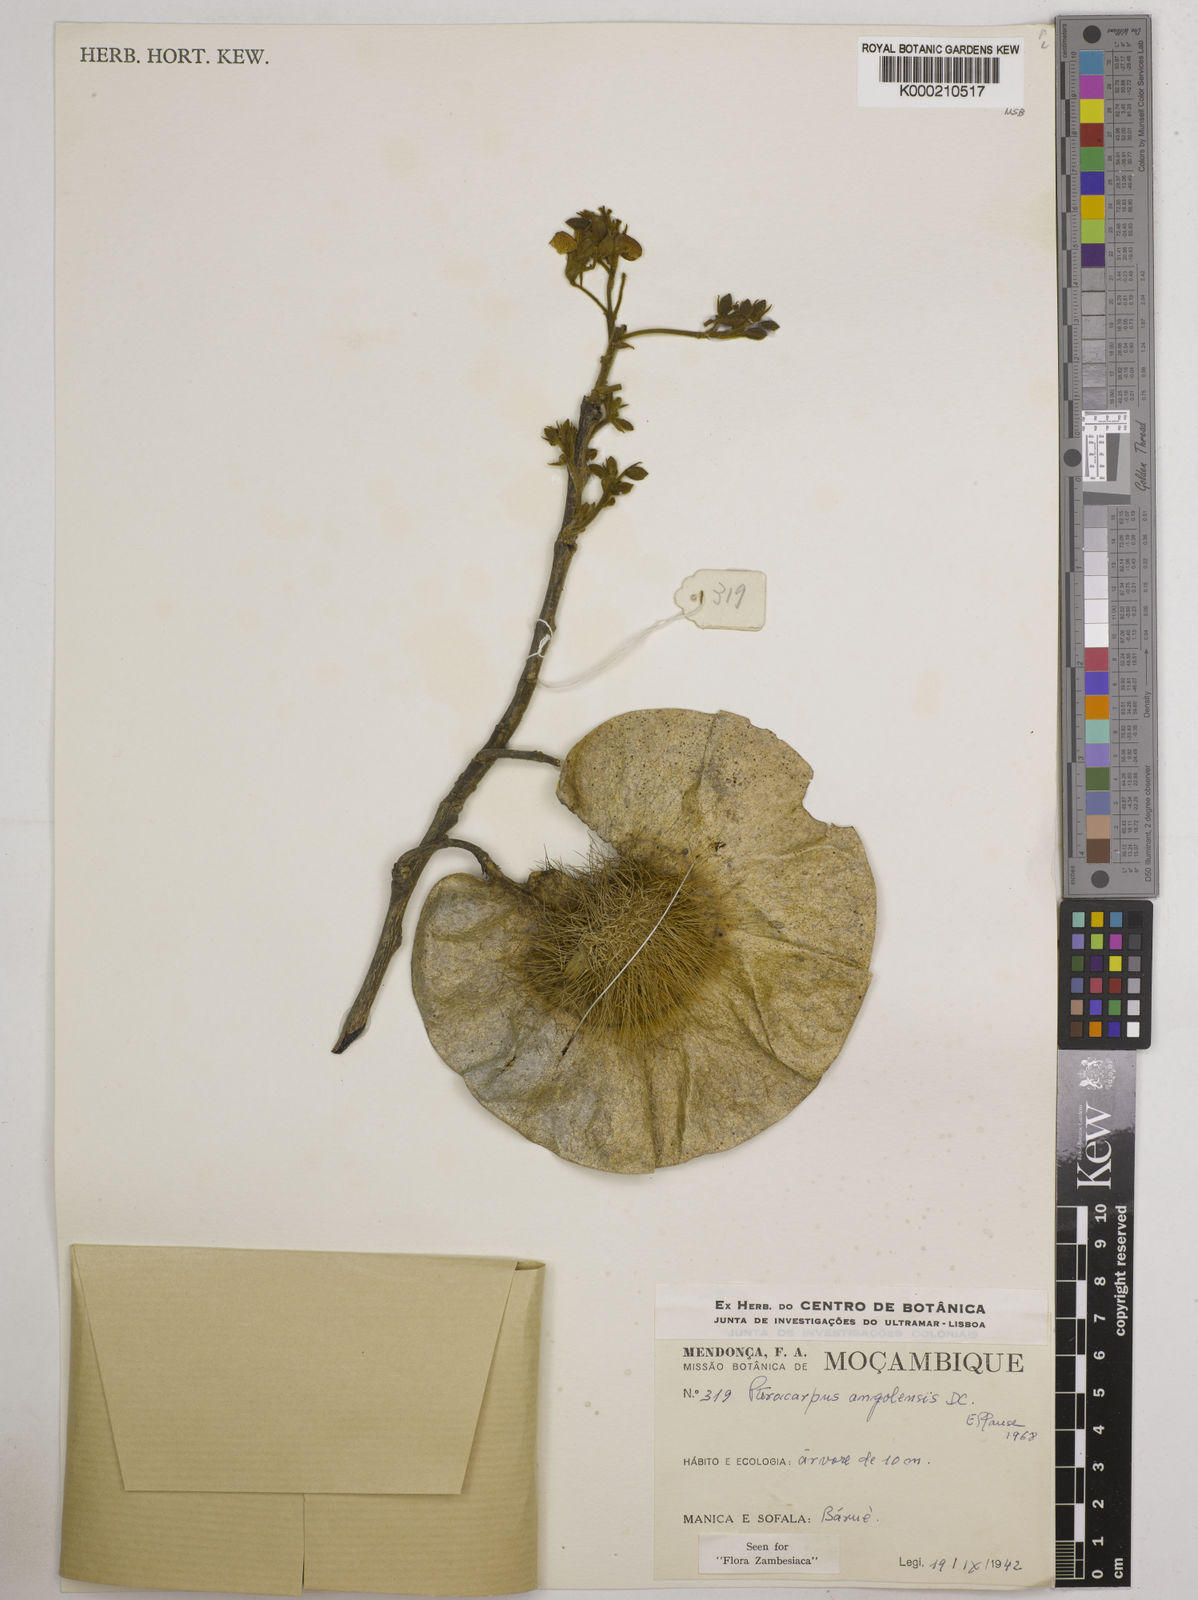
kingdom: Plantae
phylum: Tracheophyta
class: Magnoliopsida
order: Fabales
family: Fabaceae
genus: Pterocarpus
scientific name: Pterocarpus angolensis
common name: Bloodwood tree
